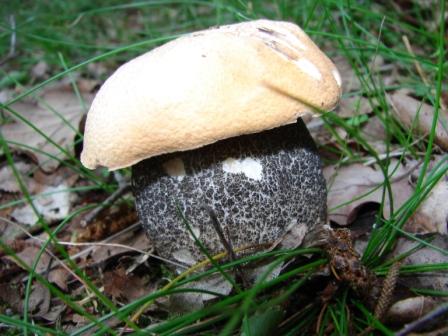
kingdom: Fungi
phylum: Basidiomycota
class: Agaricomycetes
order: Boletales
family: Boletaceae
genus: Leccinum
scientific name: Leccinum versipelle
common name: orange skælrørhat
